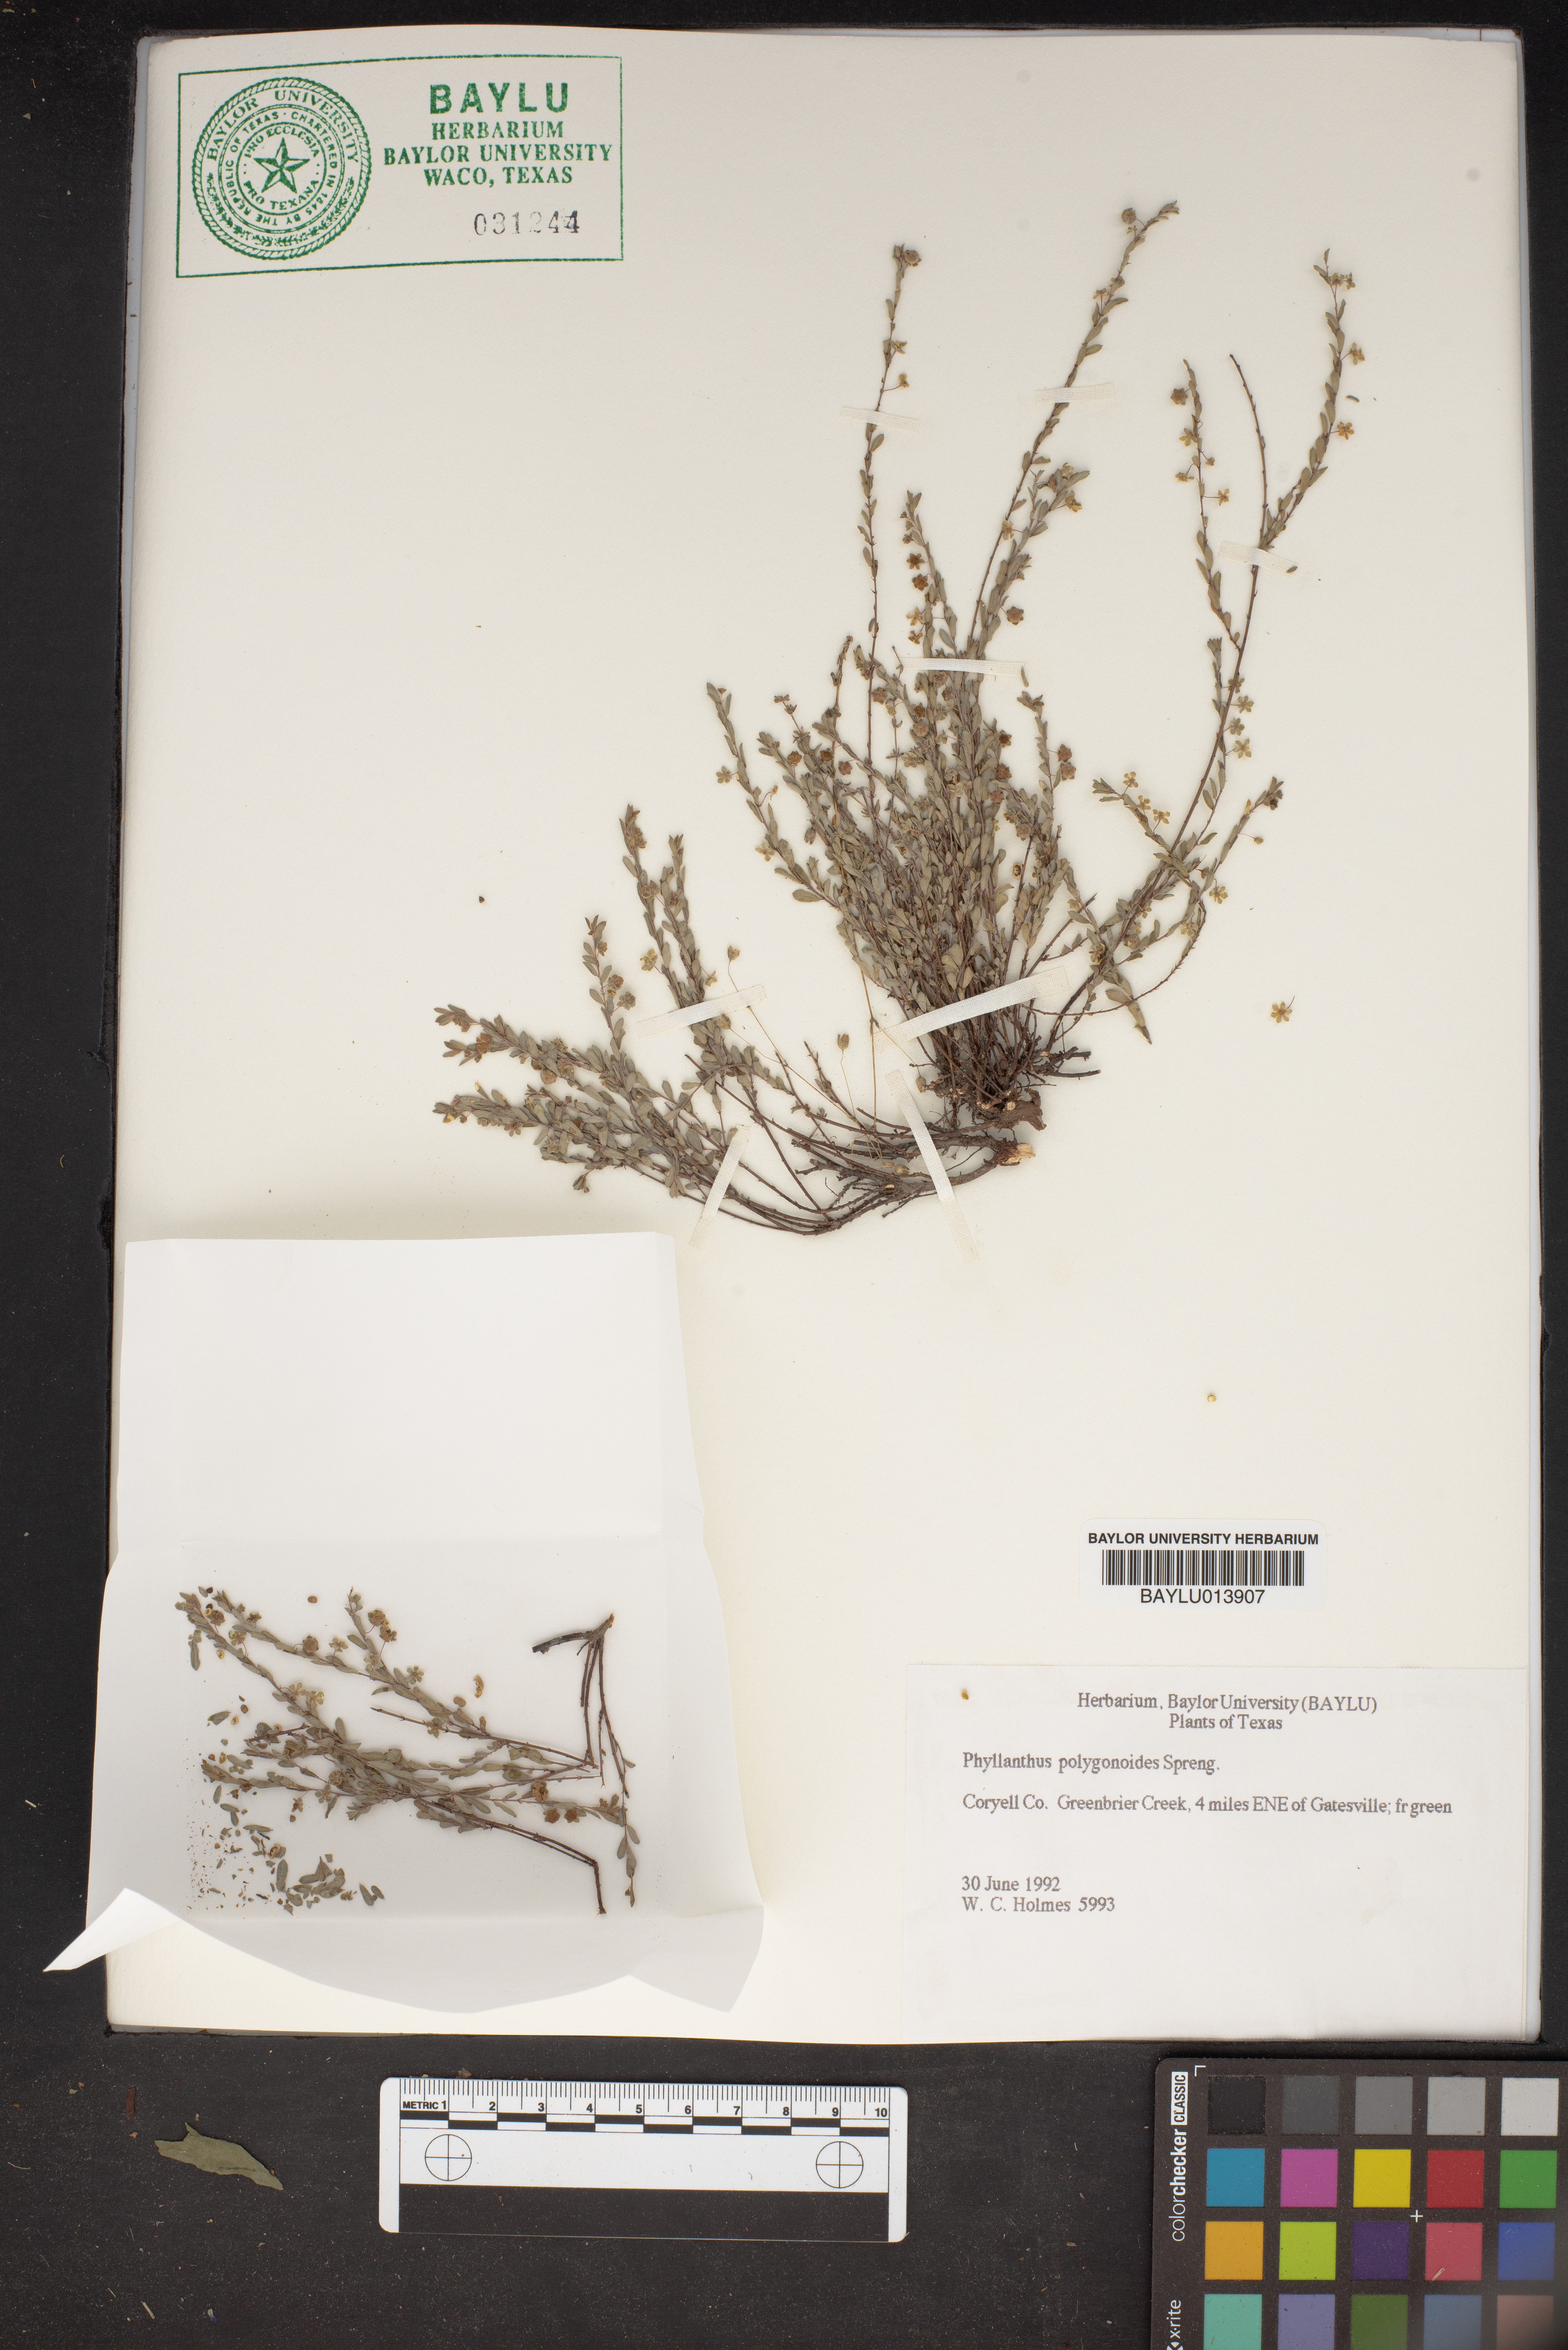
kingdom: Plantae
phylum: Tracheophyta
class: Magnoliopsida
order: Malpighiales
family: Phyllanthaceae
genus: Phyllanthus
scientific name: Phyllanthus polygonoides
